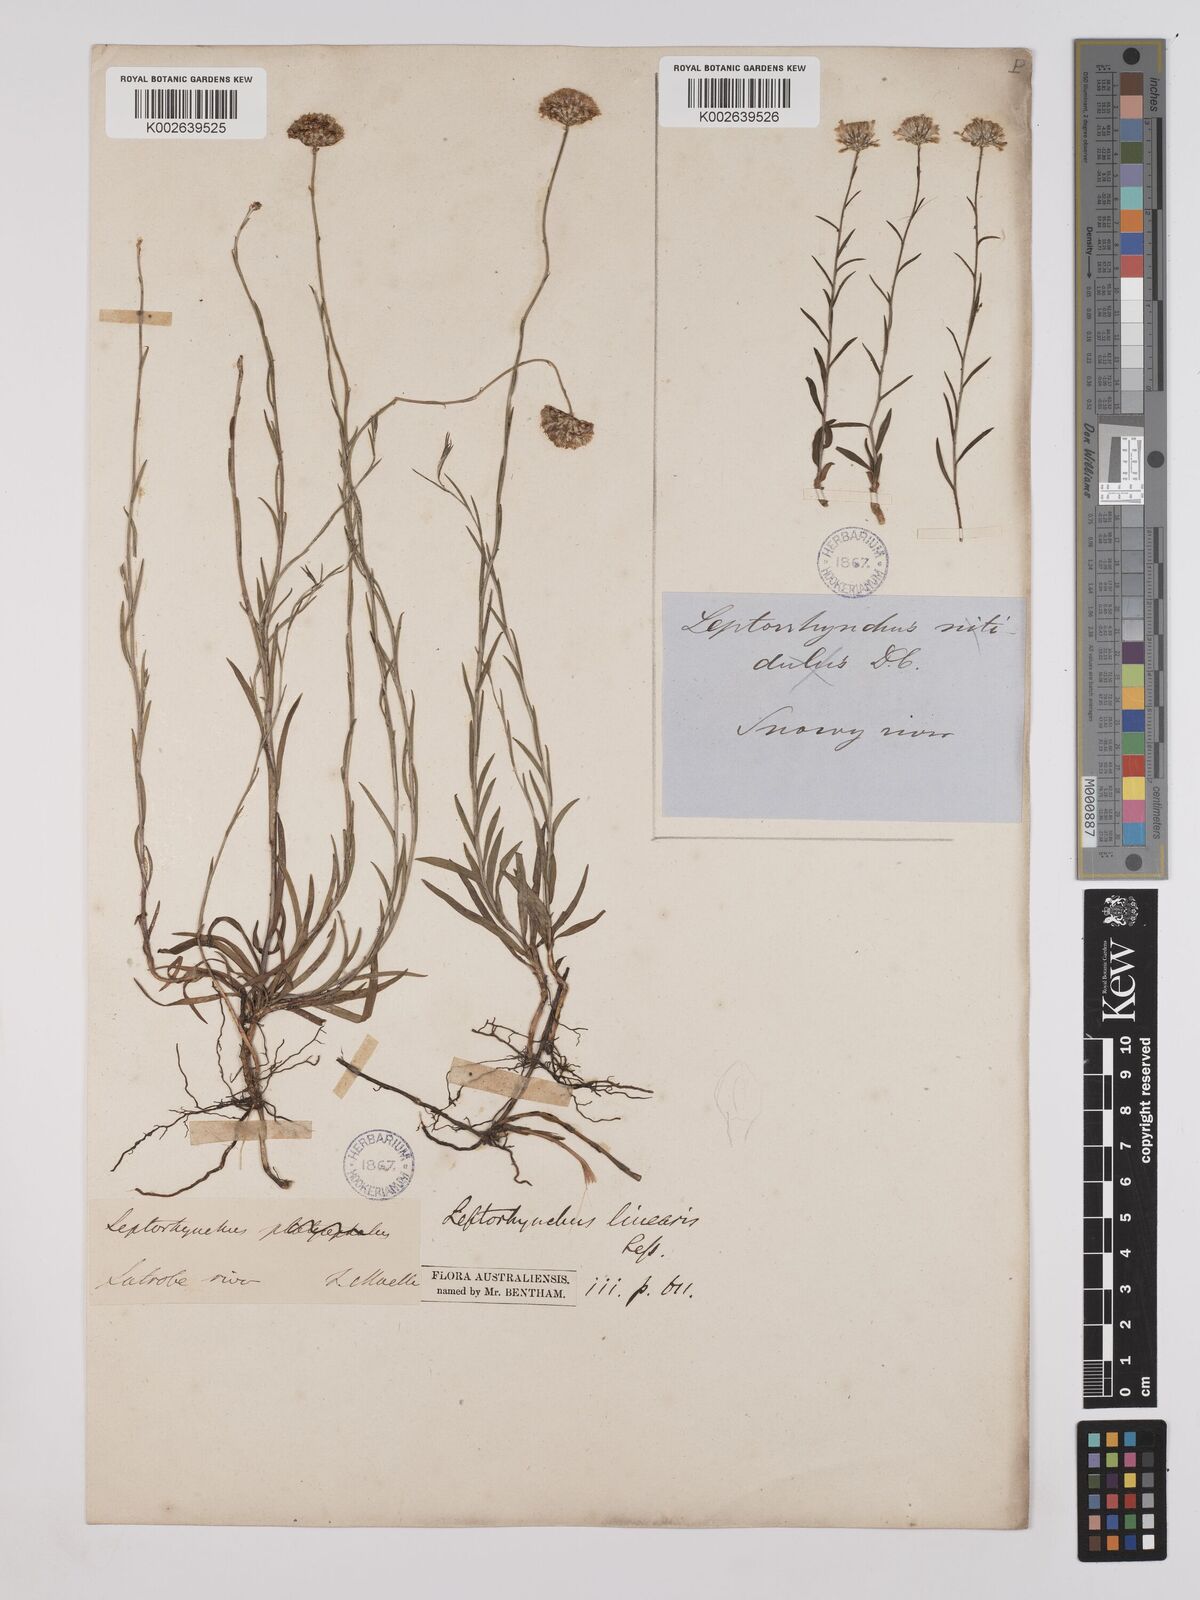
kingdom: Plantae
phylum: Tracheophyta
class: Magnoliopsida
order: Asterales
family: Asteraceae
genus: Leptorhynchos
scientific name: Leptorhynchos nitidulus
